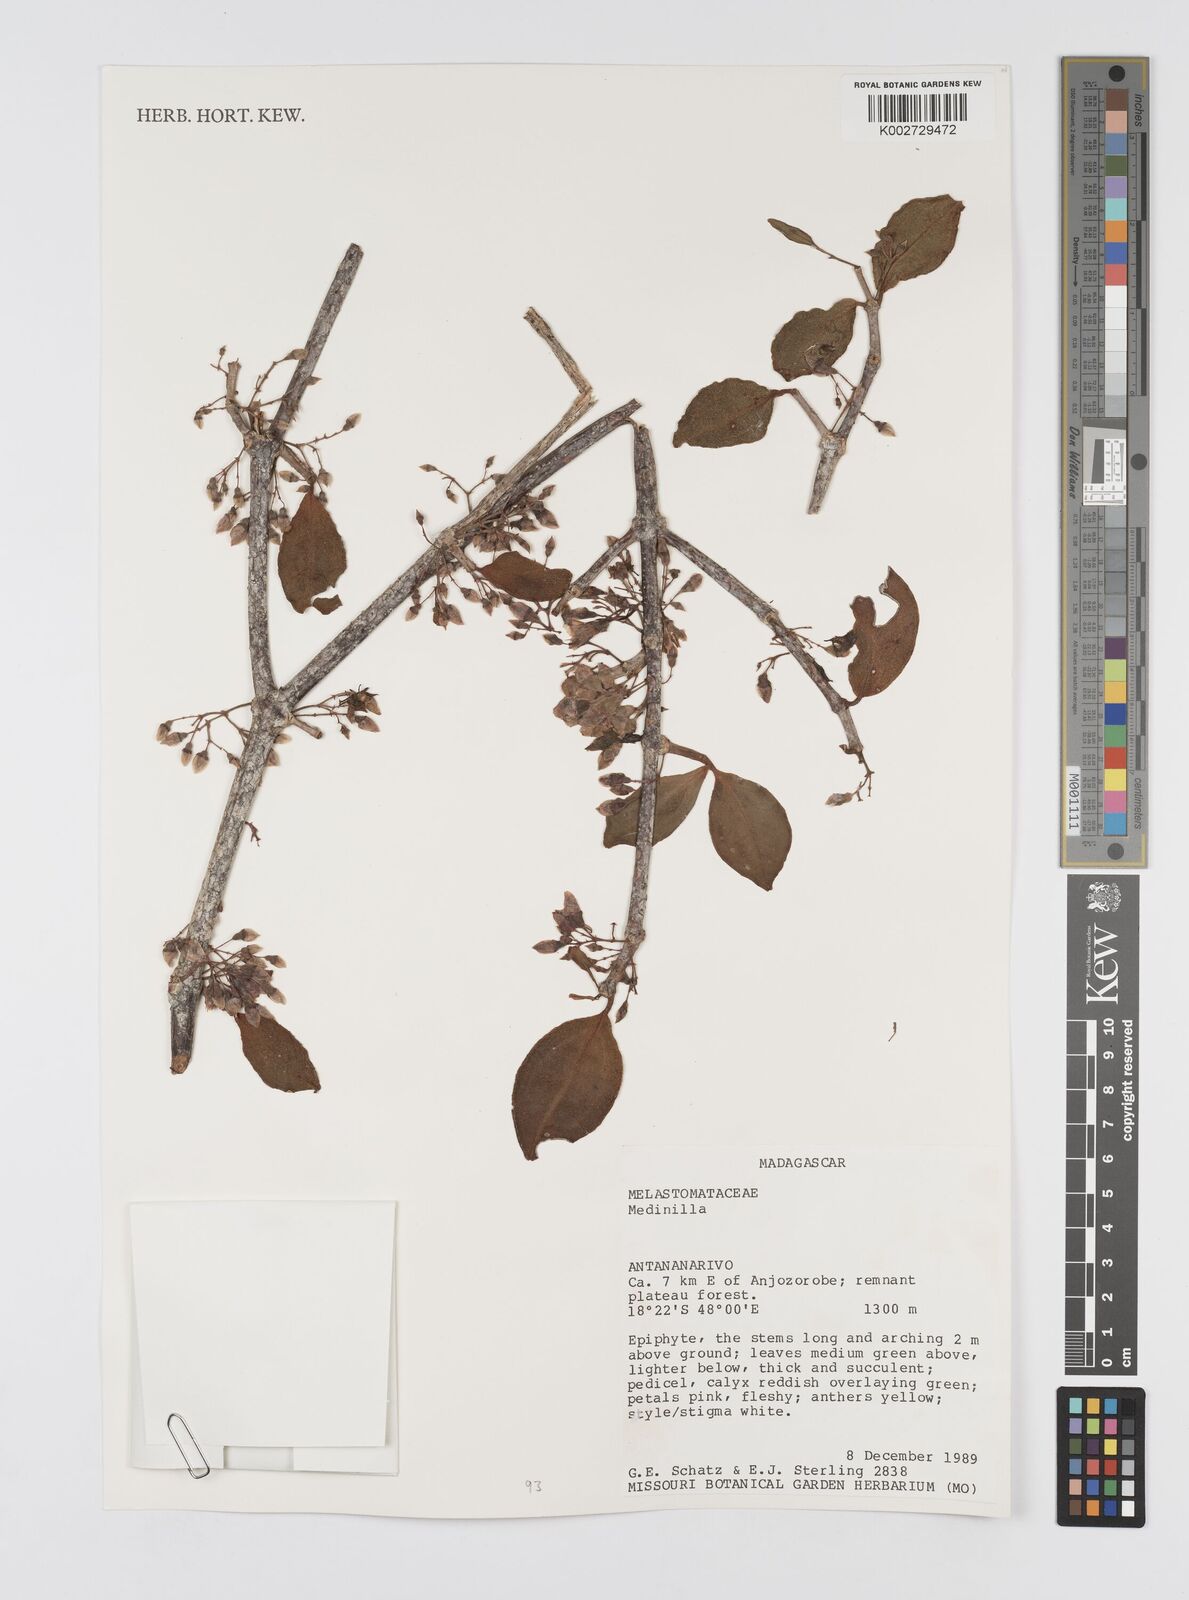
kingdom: Plantae
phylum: Tracheophyta
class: Magnoliopsida
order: Myrtales
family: Melastomataceae
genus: Medinilla
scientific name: Medinilla
